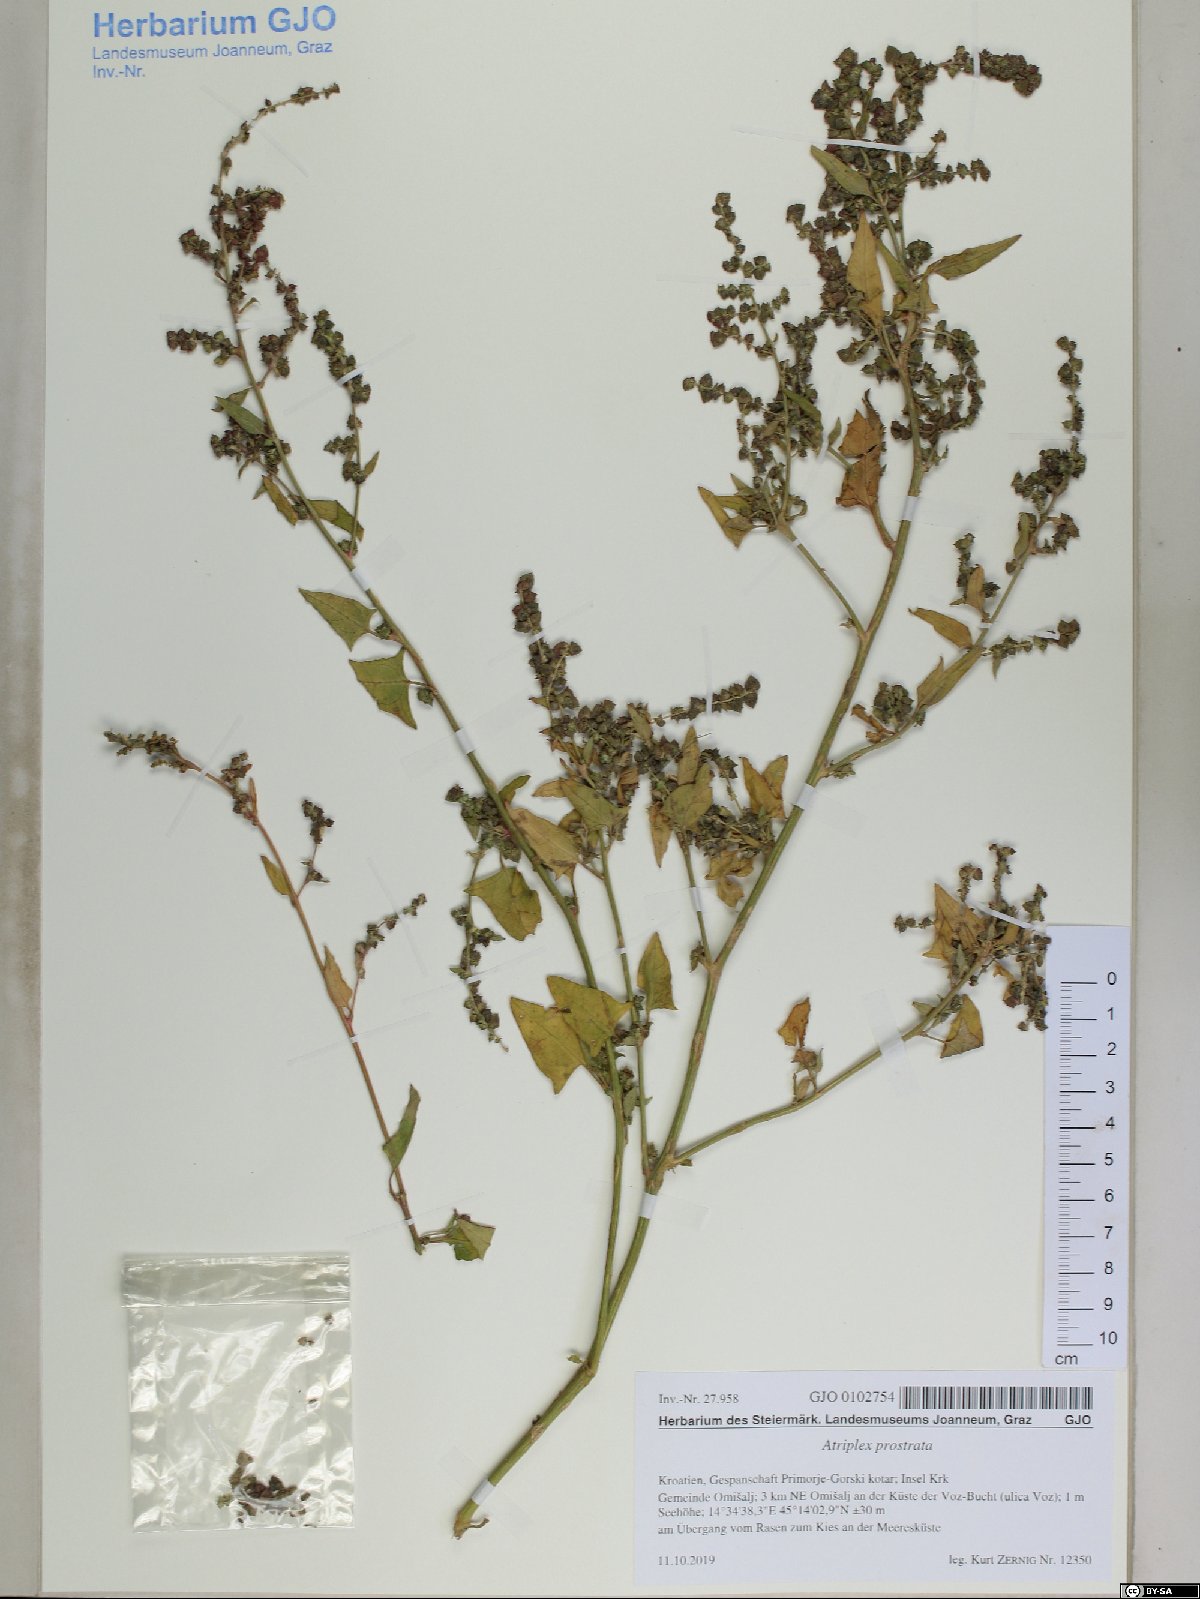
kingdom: Plantae
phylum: Tracheophyta
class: Magnoliopsida
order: Caryophyllales
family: Amaranthaceae
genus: Atriplex
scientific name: Atriplex prostrata
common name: Spear-leaved orache
